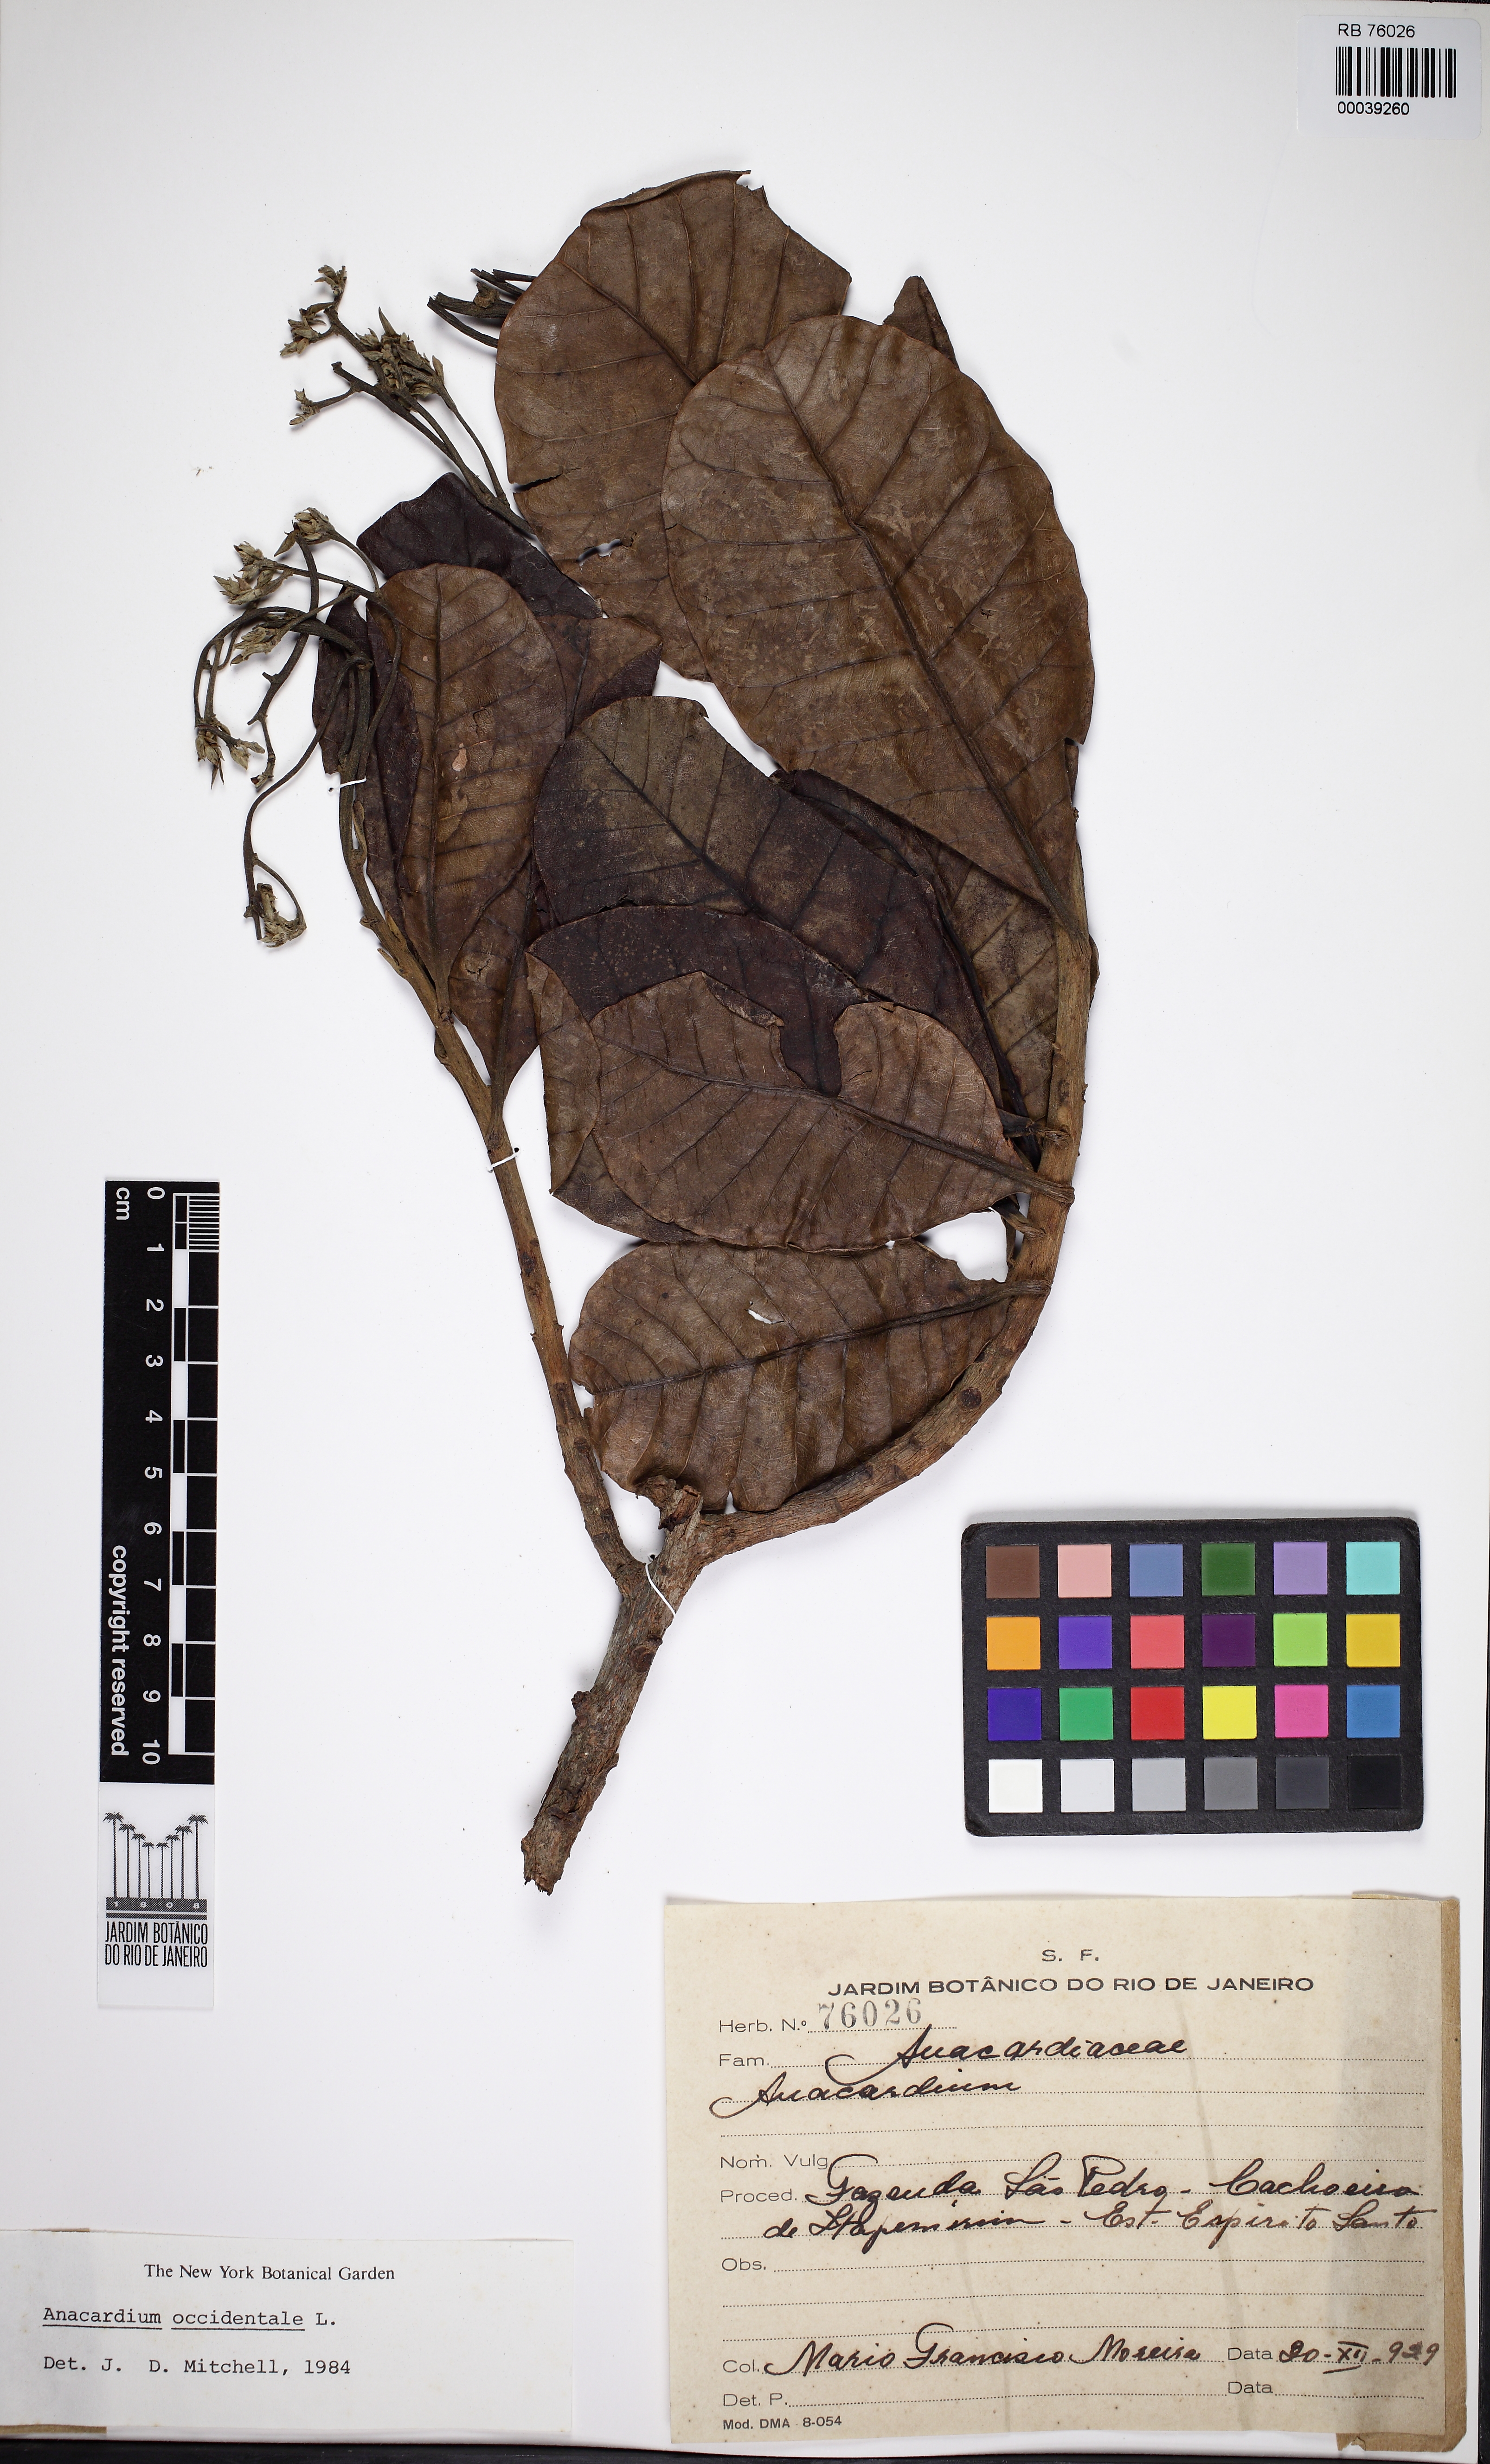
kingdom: Plantae
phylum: Tracheophyta
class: Magnoliopsida
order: Sapindales
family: Anacardiaceae
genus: Anacardium
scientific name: Anacardium
